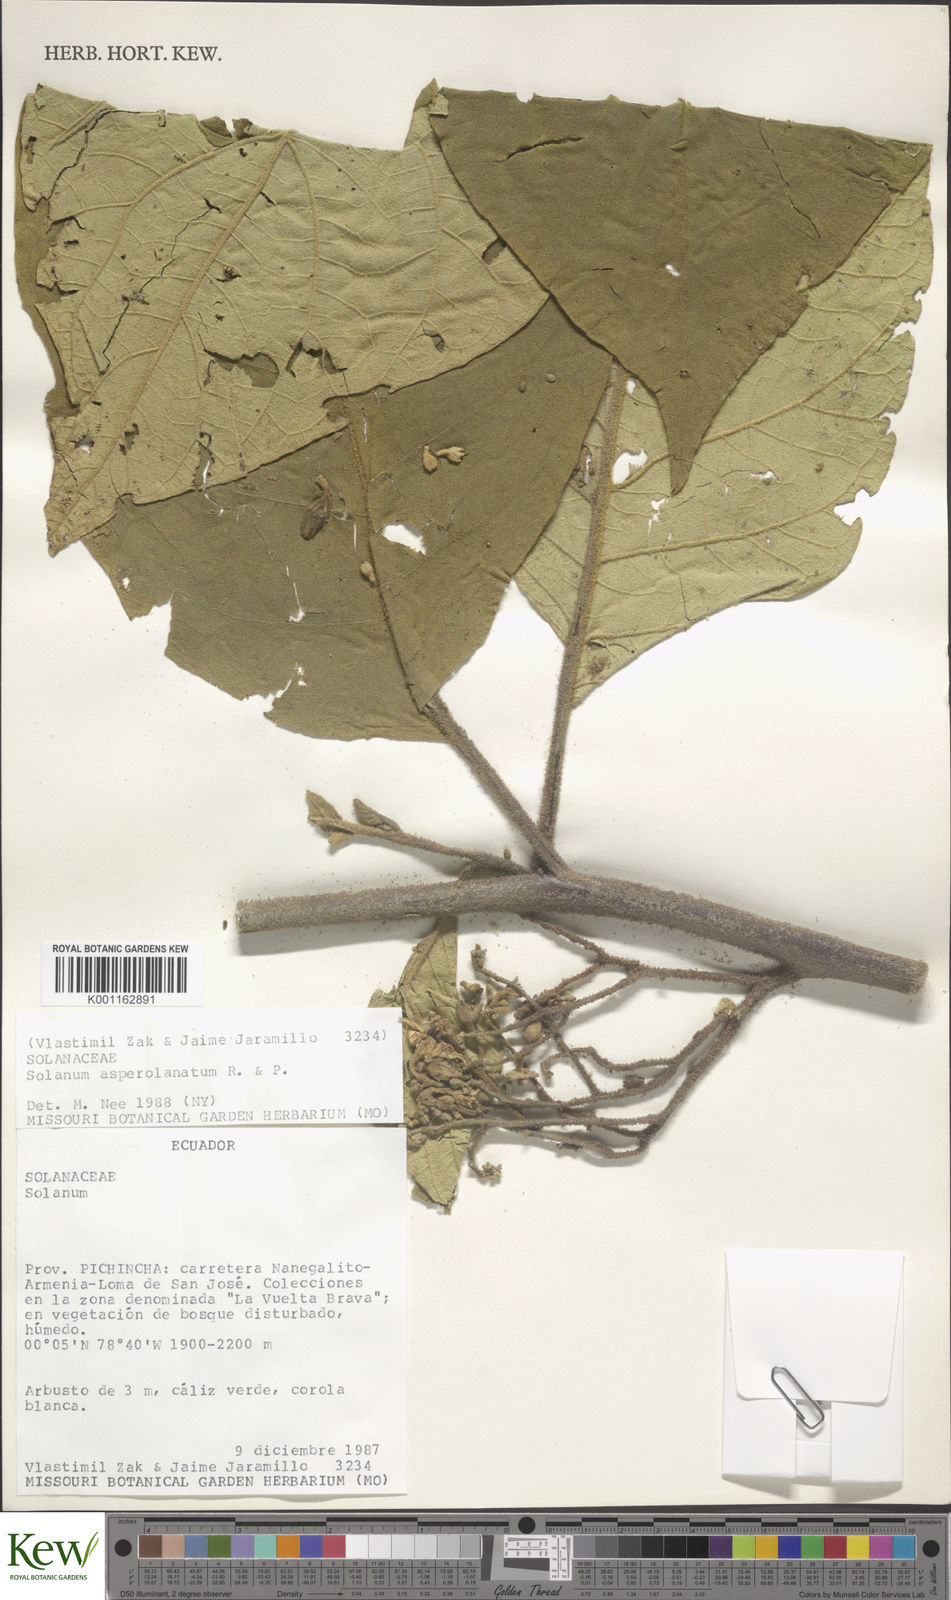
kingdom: Plantae
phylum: Tracheophyta
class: Magnoliopsida
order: Solanales
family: Solanaceae
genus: Solanum
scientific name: Solanum asperolanatum
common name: Devil's-fig
